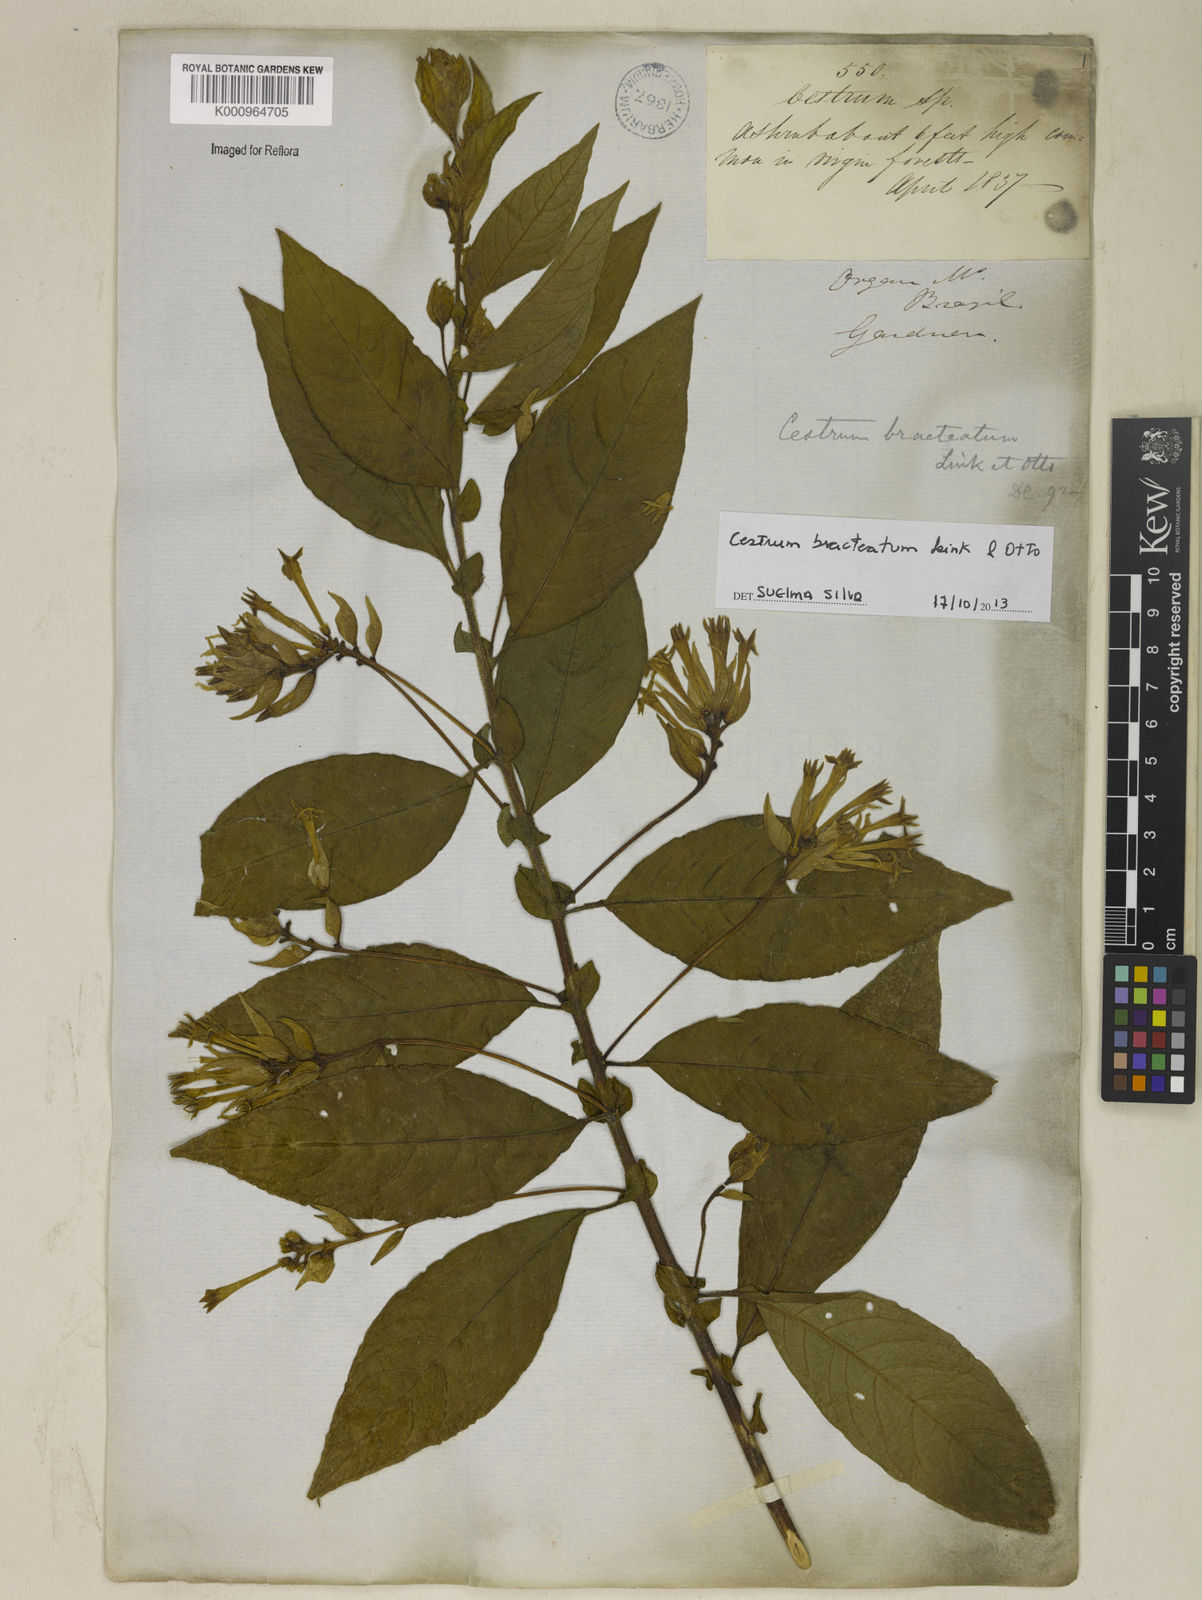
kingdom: Plantae
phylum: Tracheophyta
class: Magnoliopsida
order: Solanales
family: Solanaceae
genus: Cestrum
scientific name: Cestrum bracteatum
